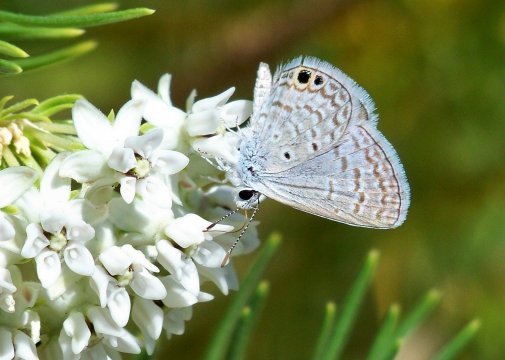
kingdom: Animalia
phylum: Arthropoda
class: Insecta
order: Lepidoptera
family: Lycaenidae
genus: Hemiargus
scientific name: Hemiargus ceraunus
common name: Ceraunus Blue
